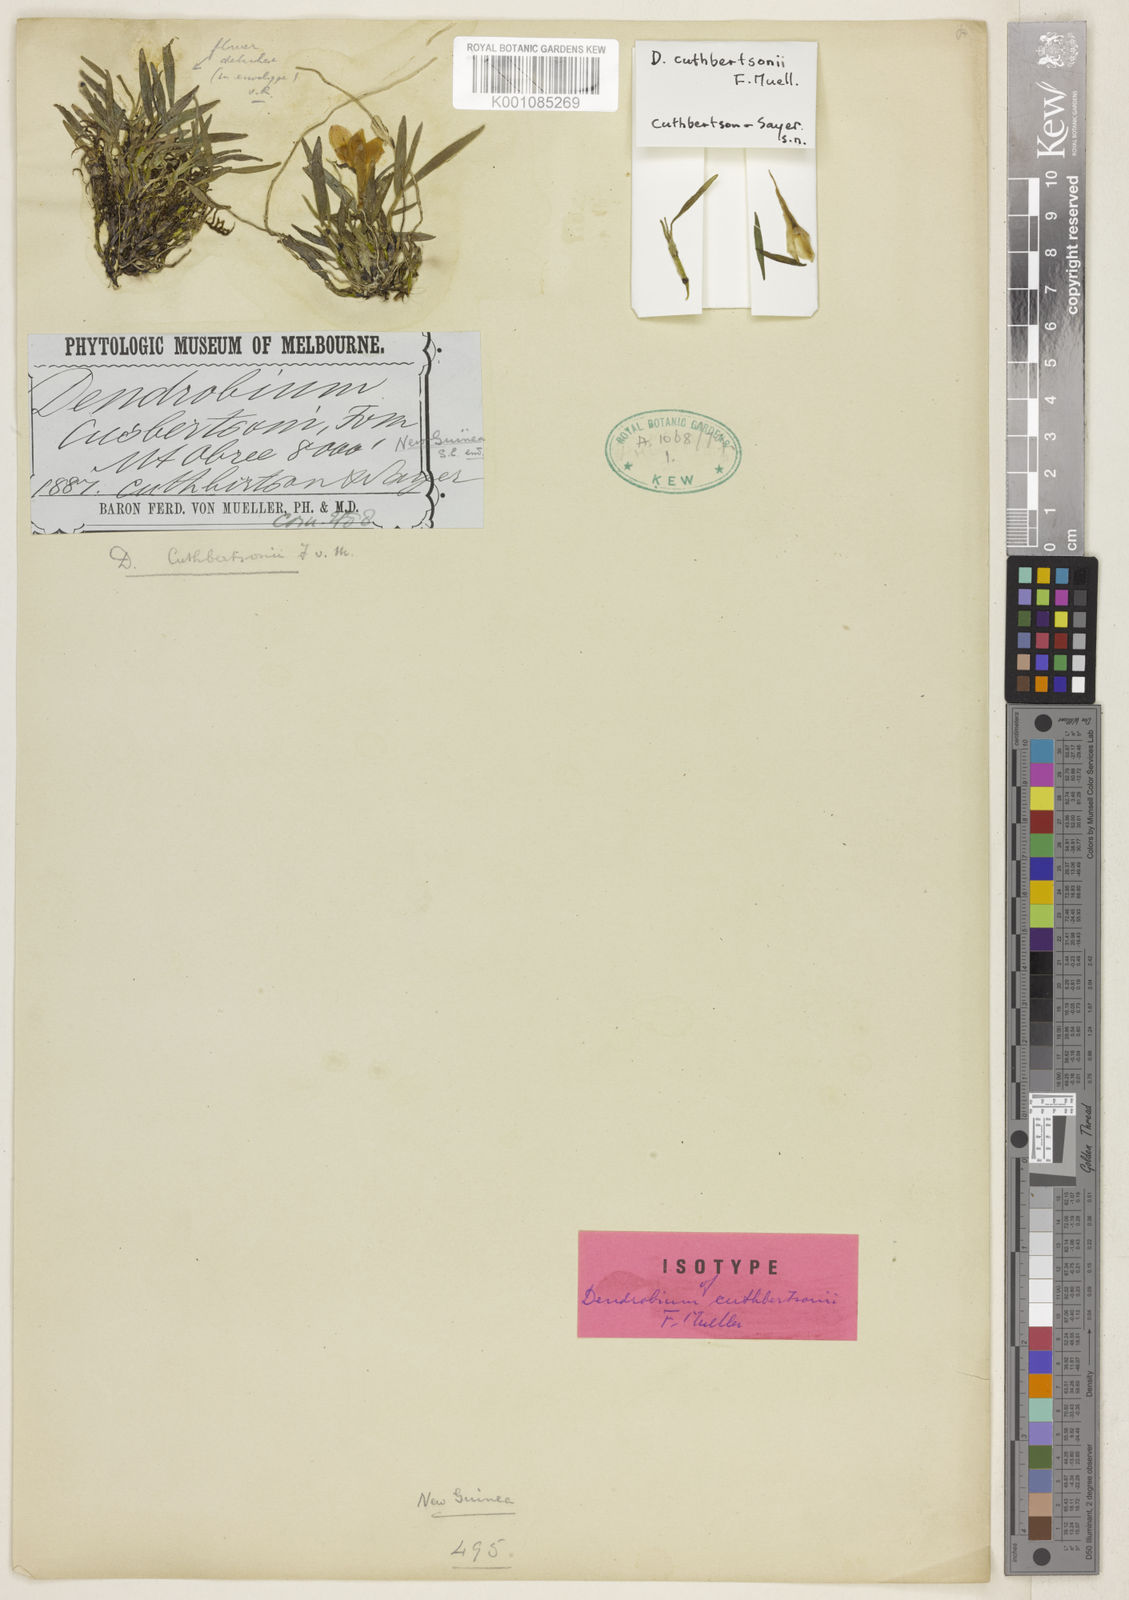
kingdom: Plantae
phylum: Tracheophyta
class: Liliopsida
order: Asparagales
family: Orchidaceae
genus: Dendrobium
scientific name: Dendrobium cuthbertsonii
